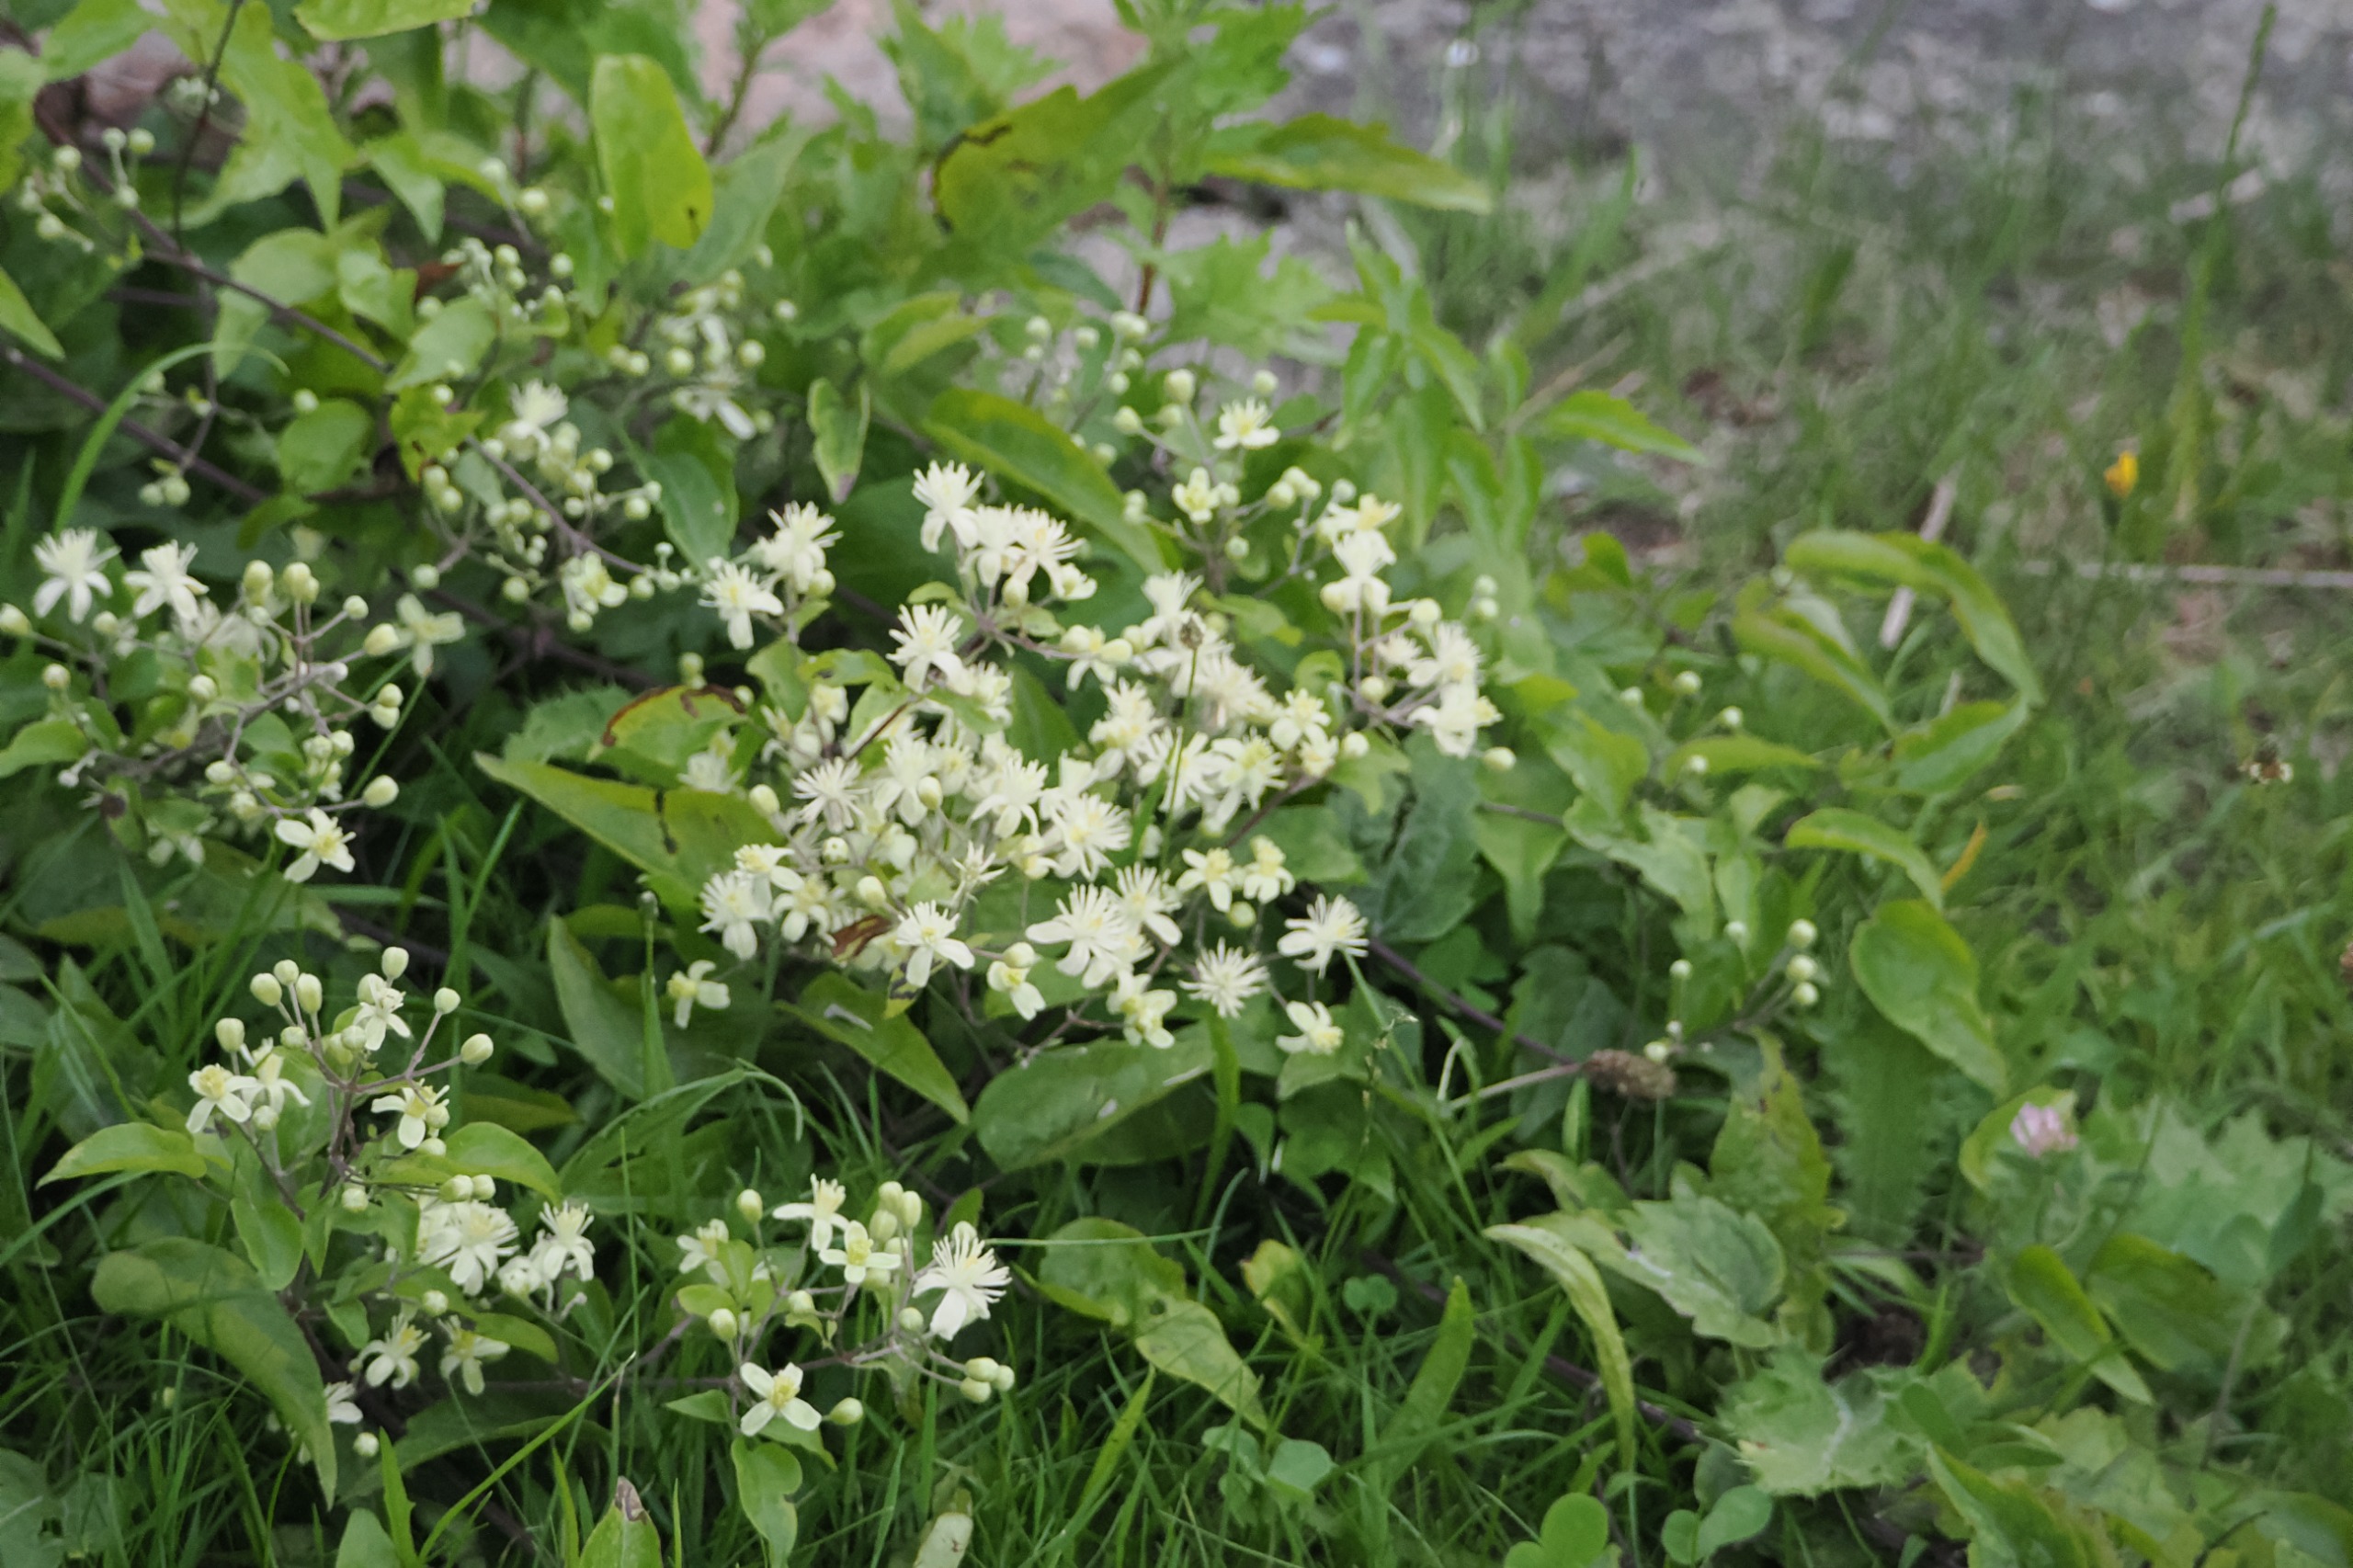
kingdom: Plantae
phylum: Tracheophyta
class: Magnoliopsida
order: Ranunculales
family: Ranunculaceae
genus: Clematis
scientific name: Clematis vitalba
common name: Skovranke
